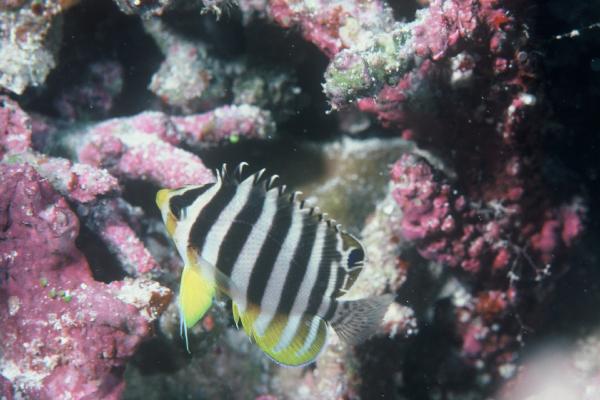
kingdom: Animalia
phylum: Chordata
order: Perciformes
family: Pomacanthidae
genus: Paracentropyge
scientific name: Paracentropyge multifasciata
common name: Barred angelfish
